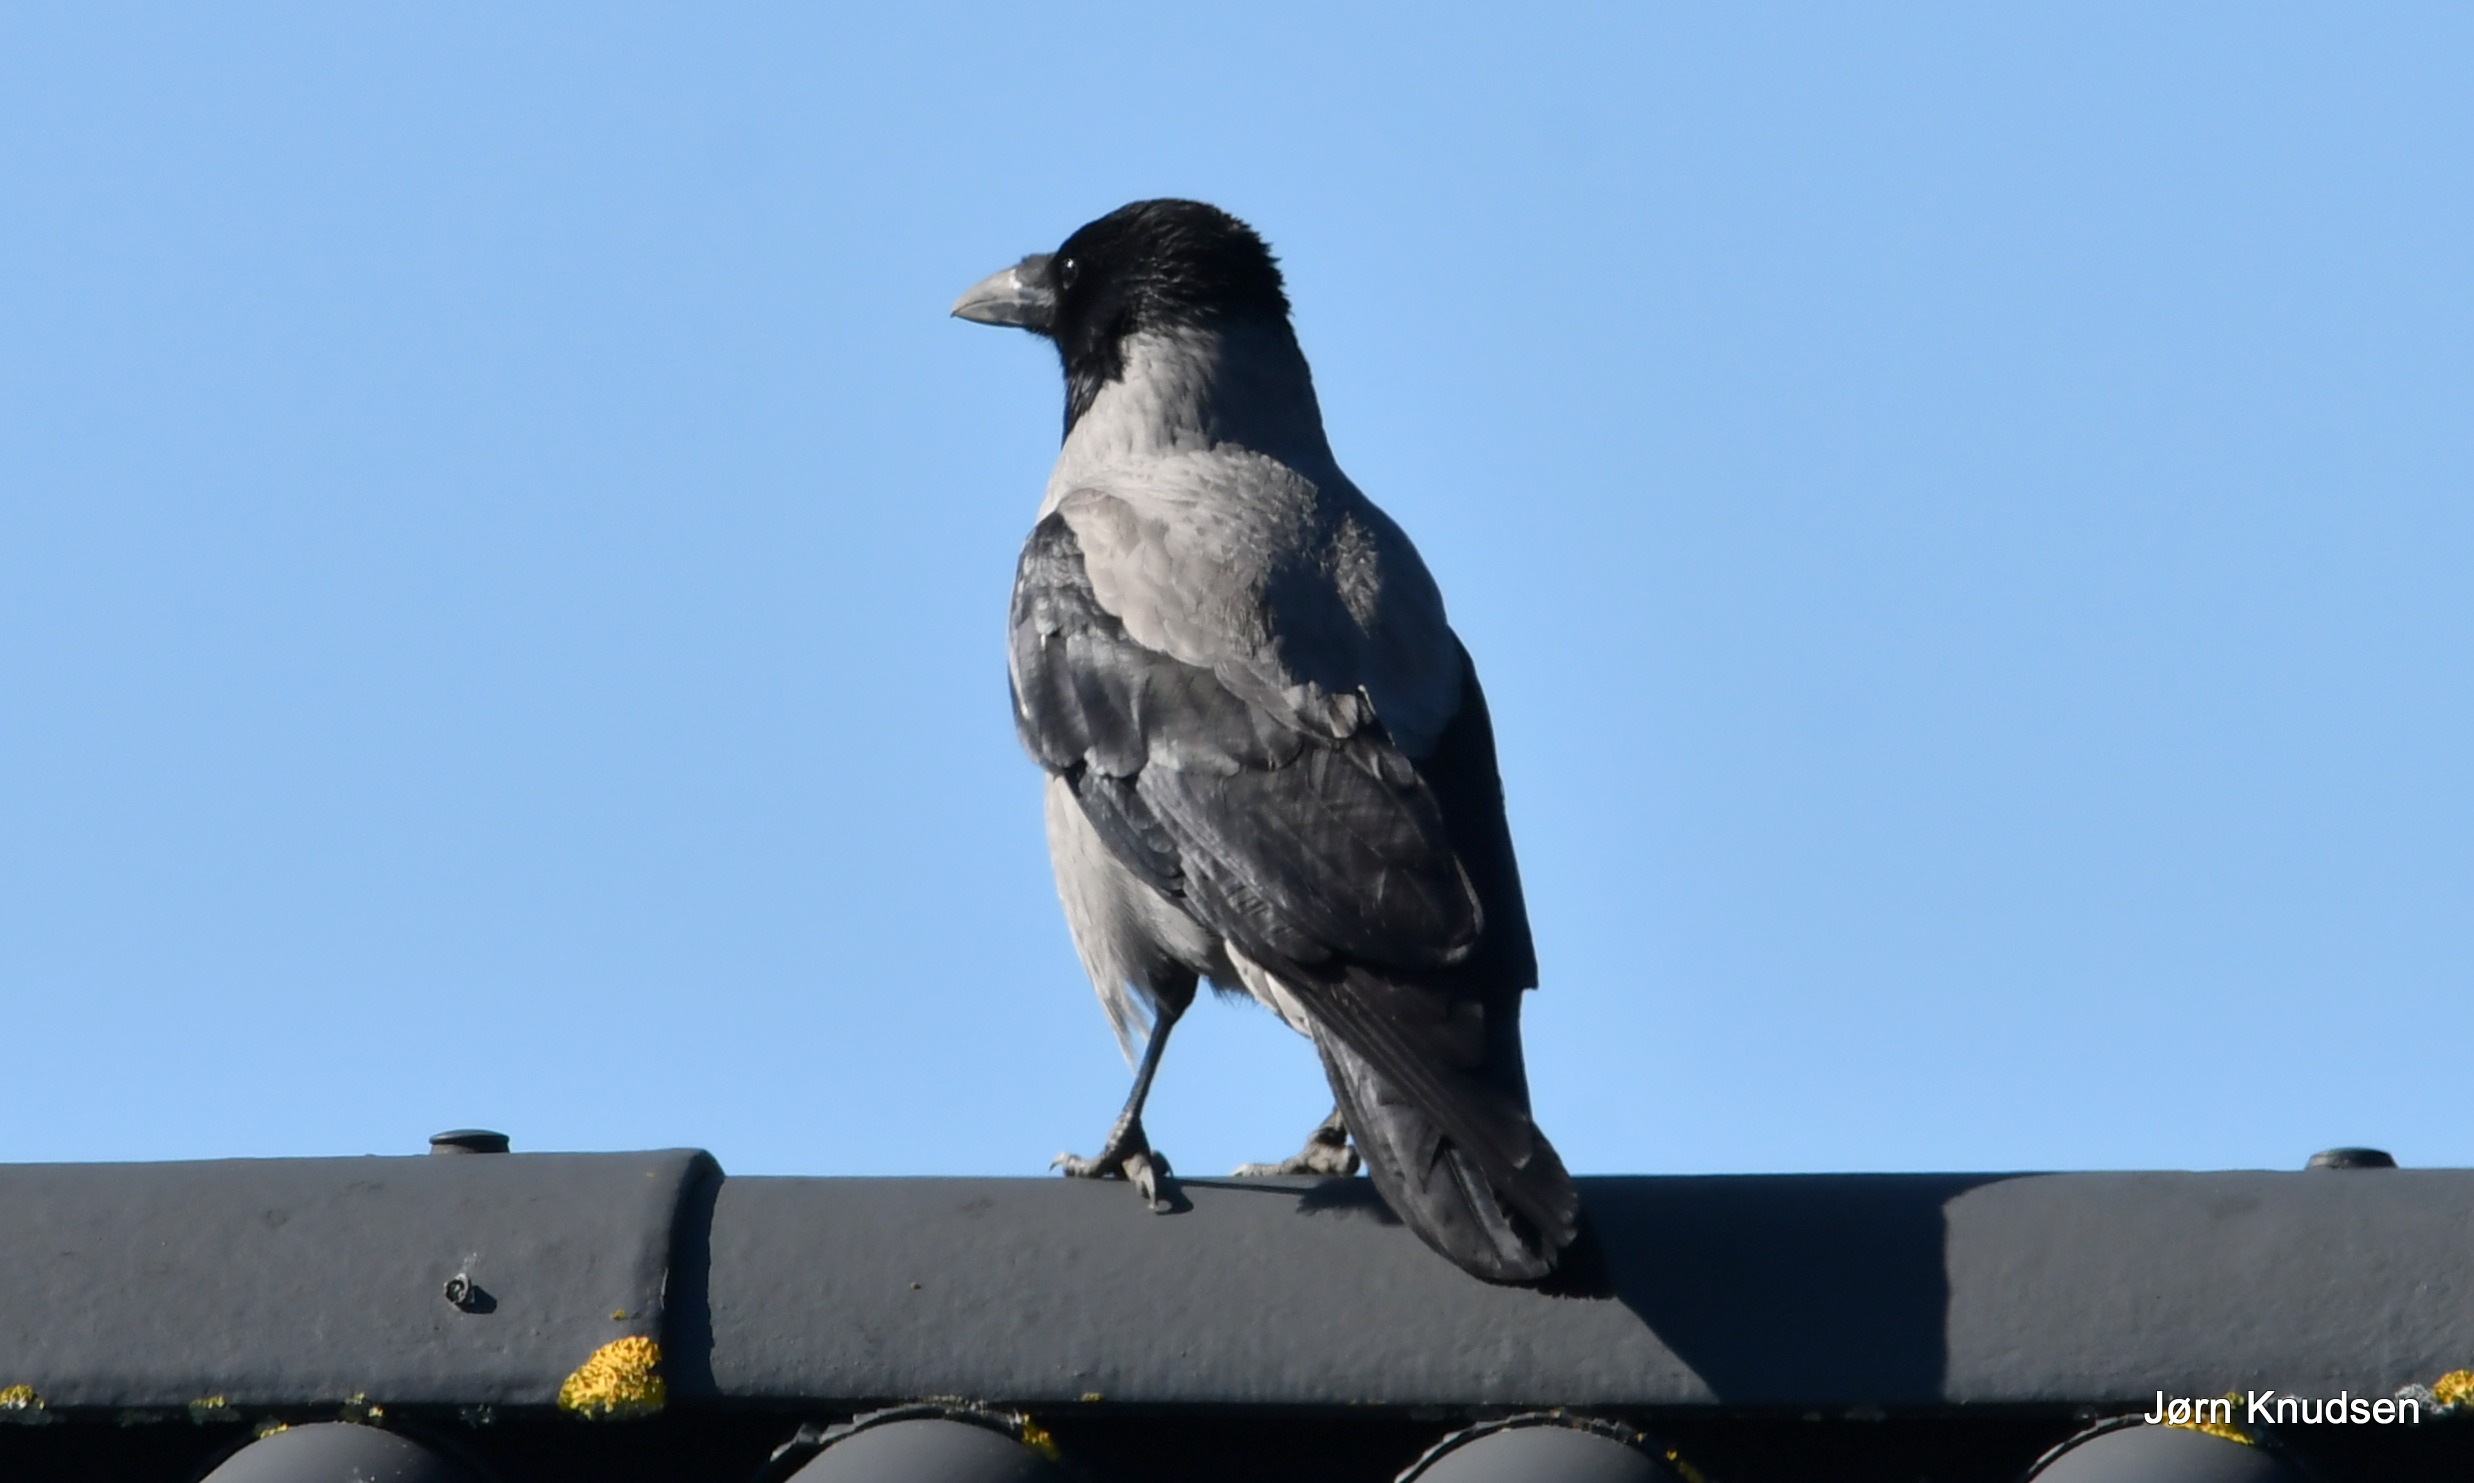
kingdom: Animalia
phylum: Chordata
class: Aves
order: Passeriformes
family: Corvidae
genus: Corvus
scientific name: Corvus cornix
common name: Gråkrage
